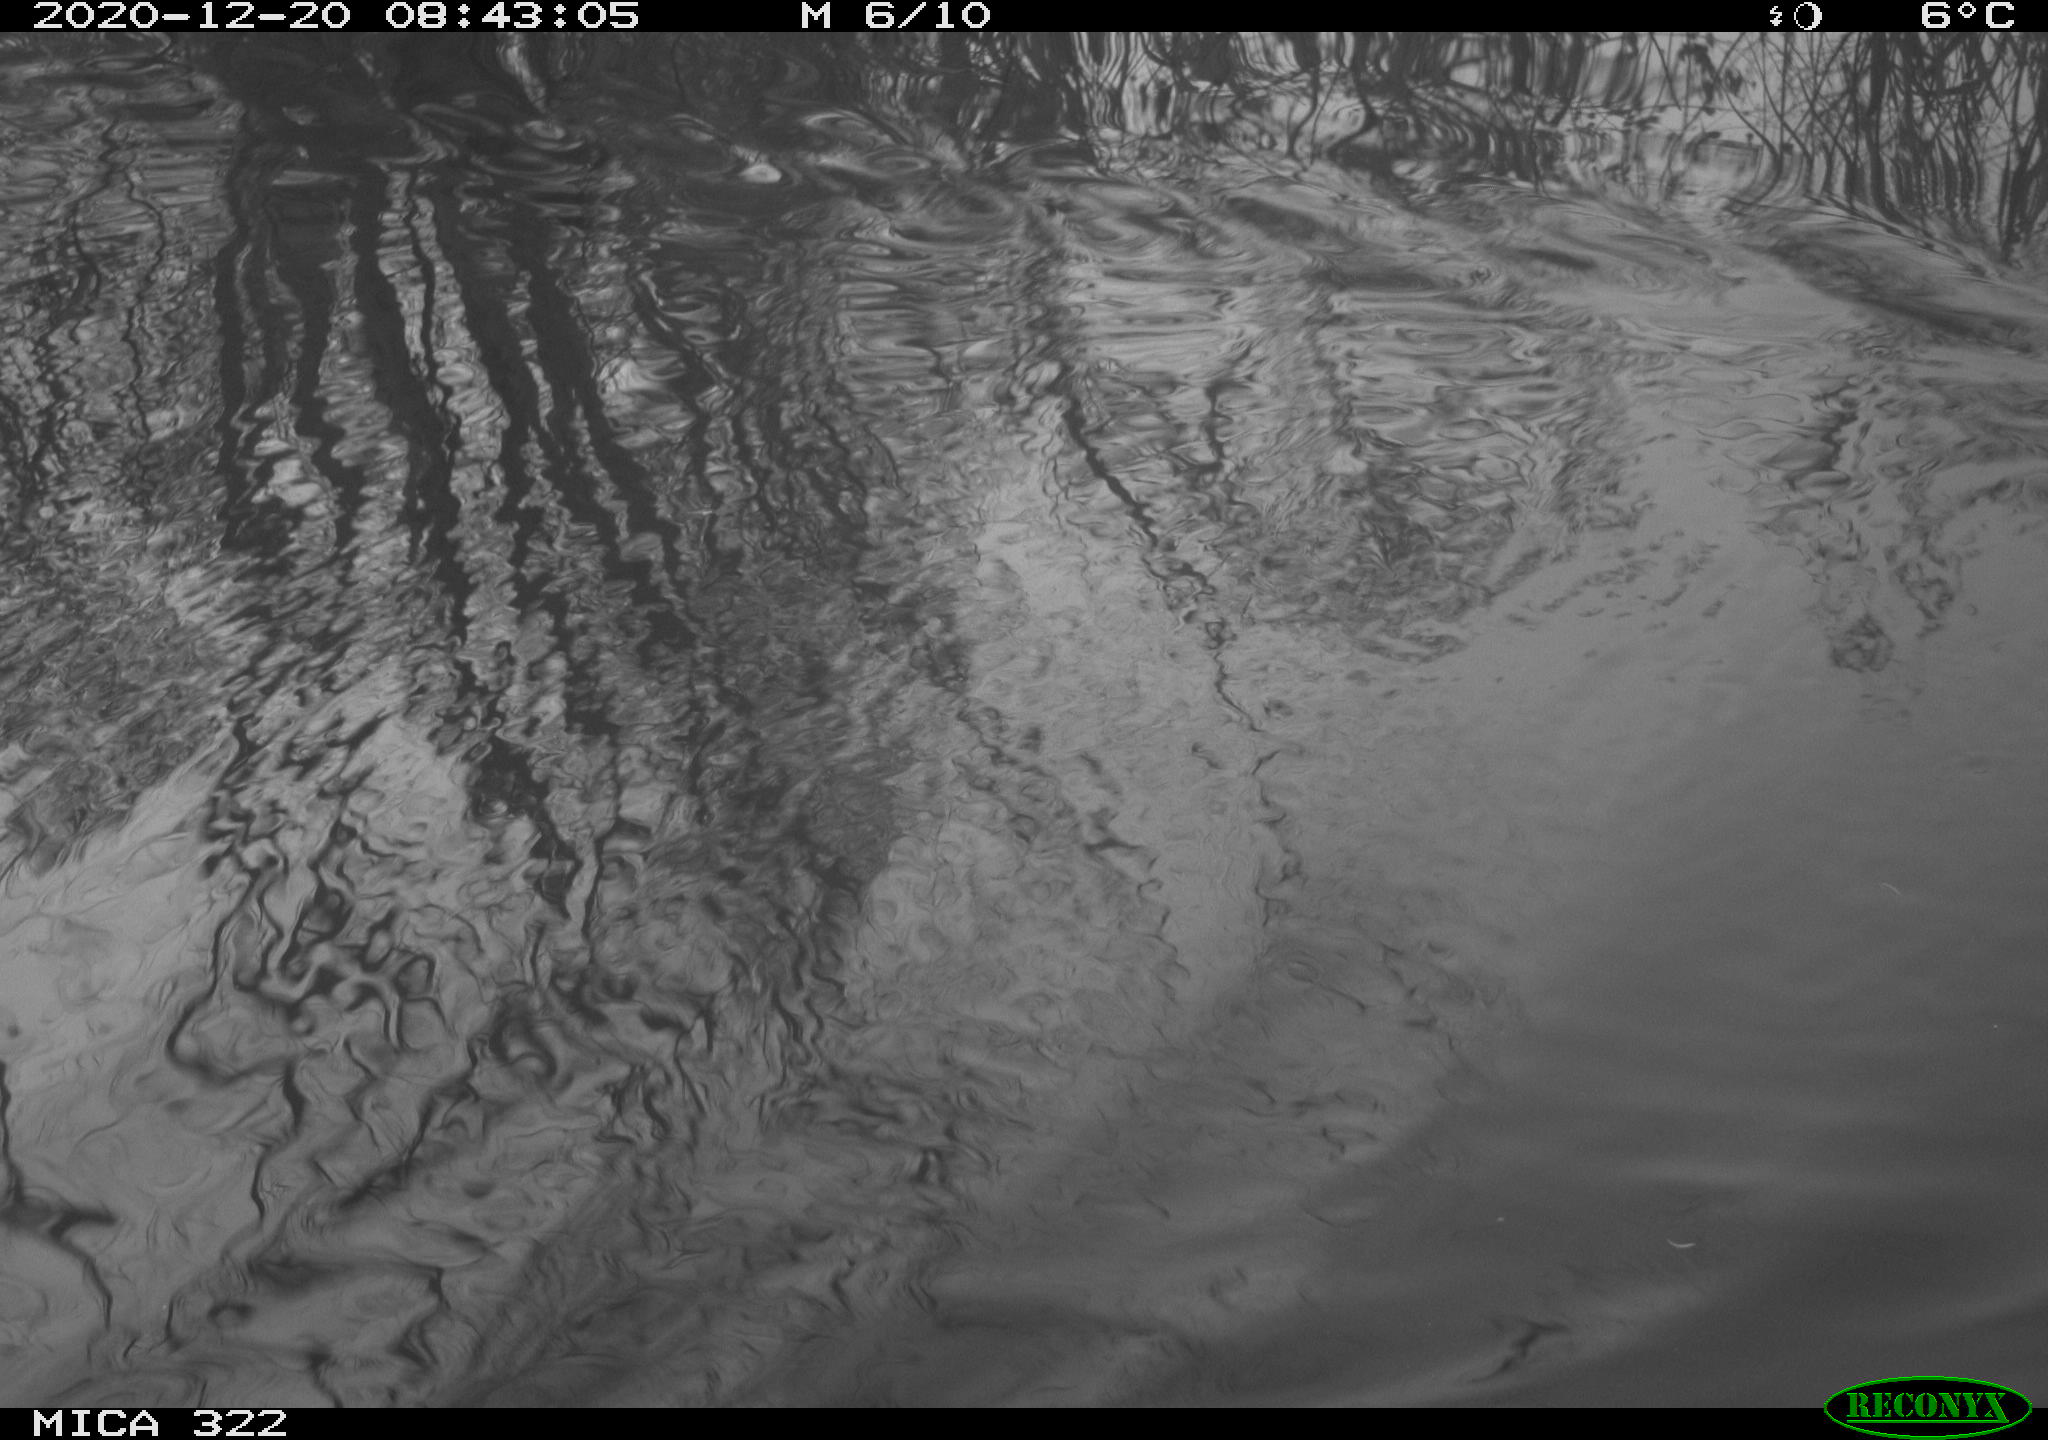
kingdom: Animalia
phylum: Chordata
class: Aves
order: Gruiformes
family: Rallidae
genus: Fulica
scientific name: Fulica atra
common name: Eurasian coot
